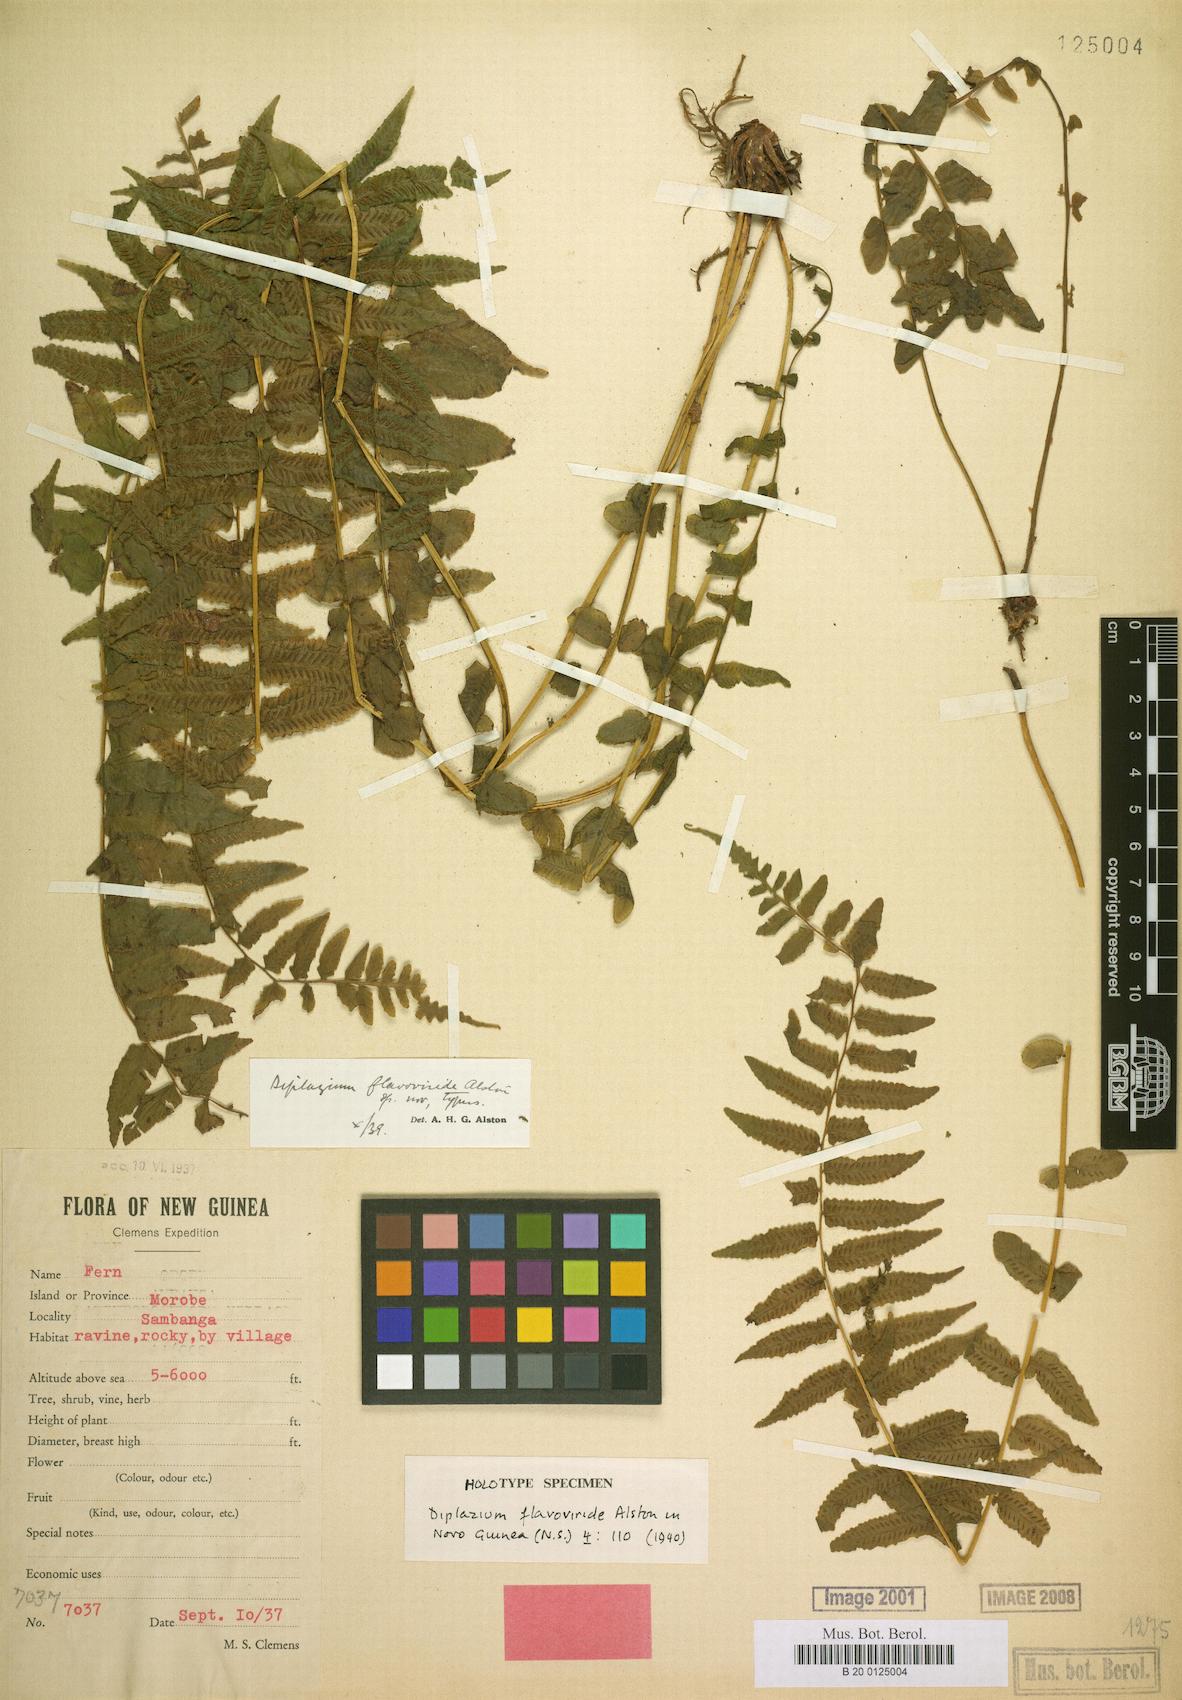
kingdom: Plantae
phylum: Tracheophyta
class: Polypodiopsida
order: Polypodiales
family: Diplaziopsidaceae
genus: Diplaziopsis
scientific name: Diplaziopsis flavoviridis
